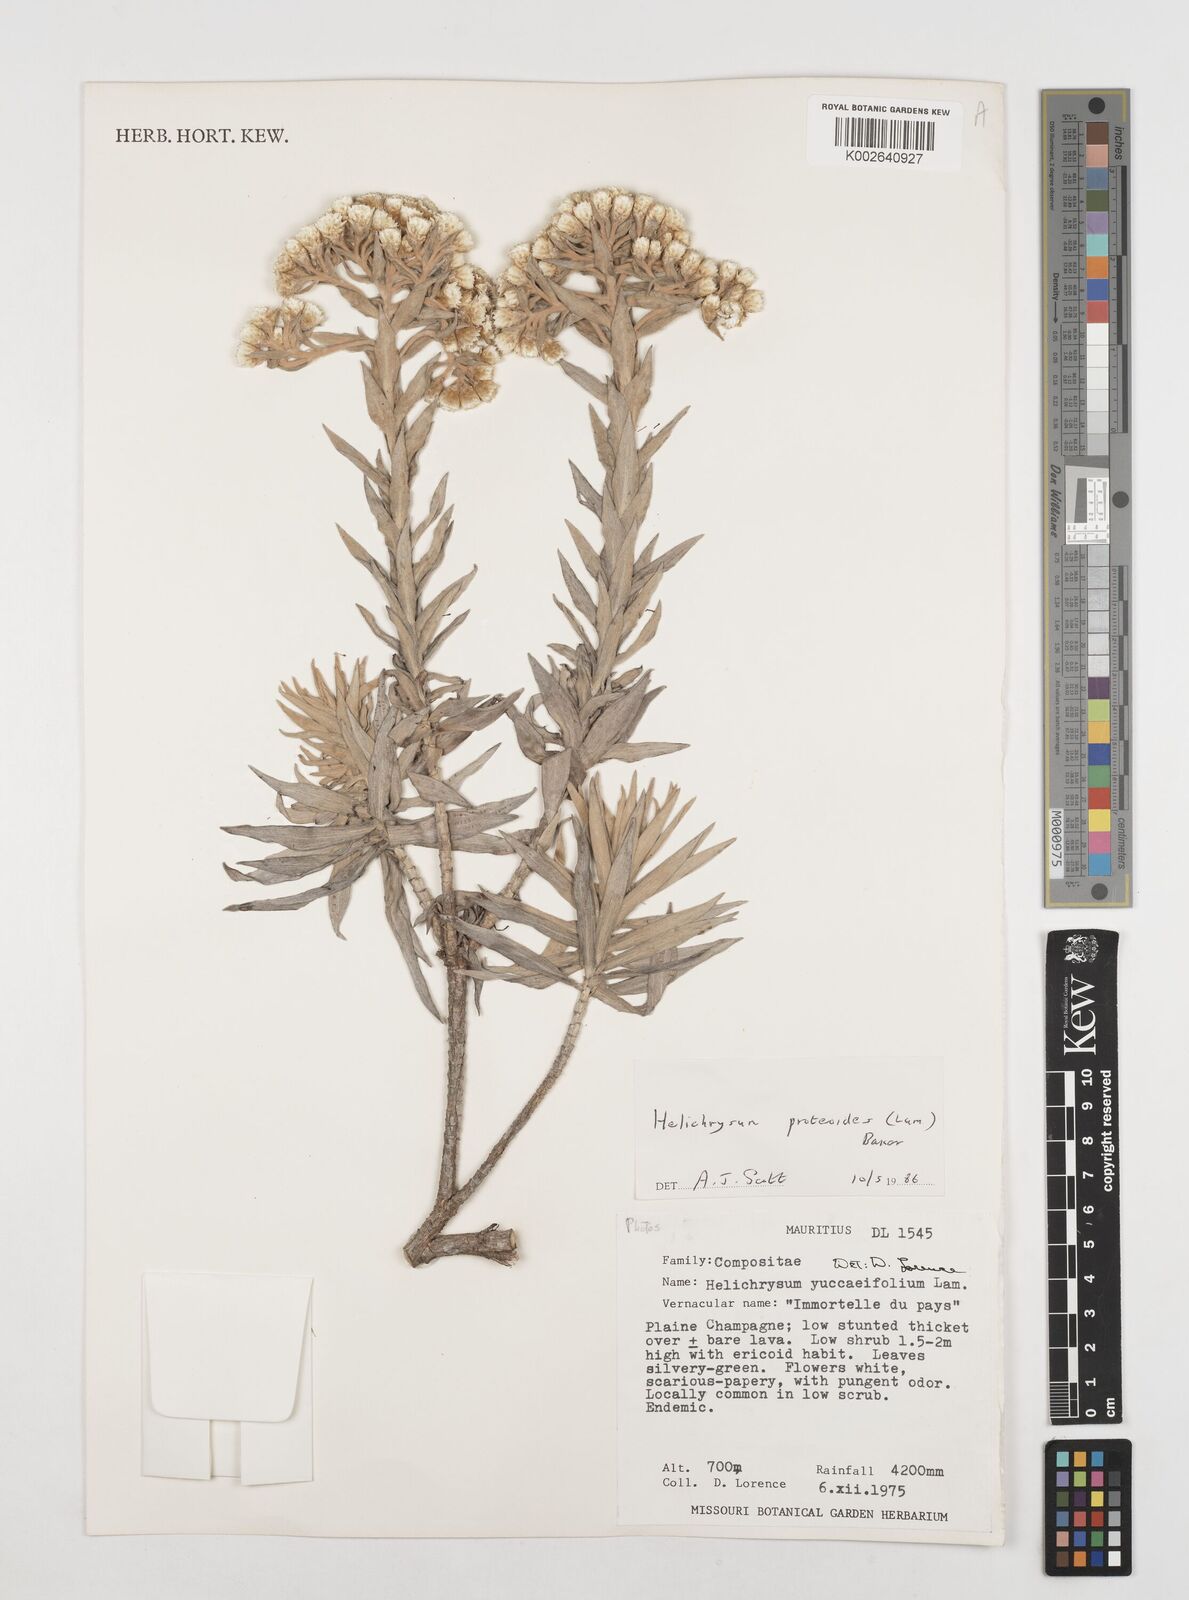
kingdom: Plantae
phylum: Tracheophyta
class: Magnoliopsida
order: Asterales
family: Asteraceae
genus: Helichrysum
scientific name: Helichrysum proteoides
